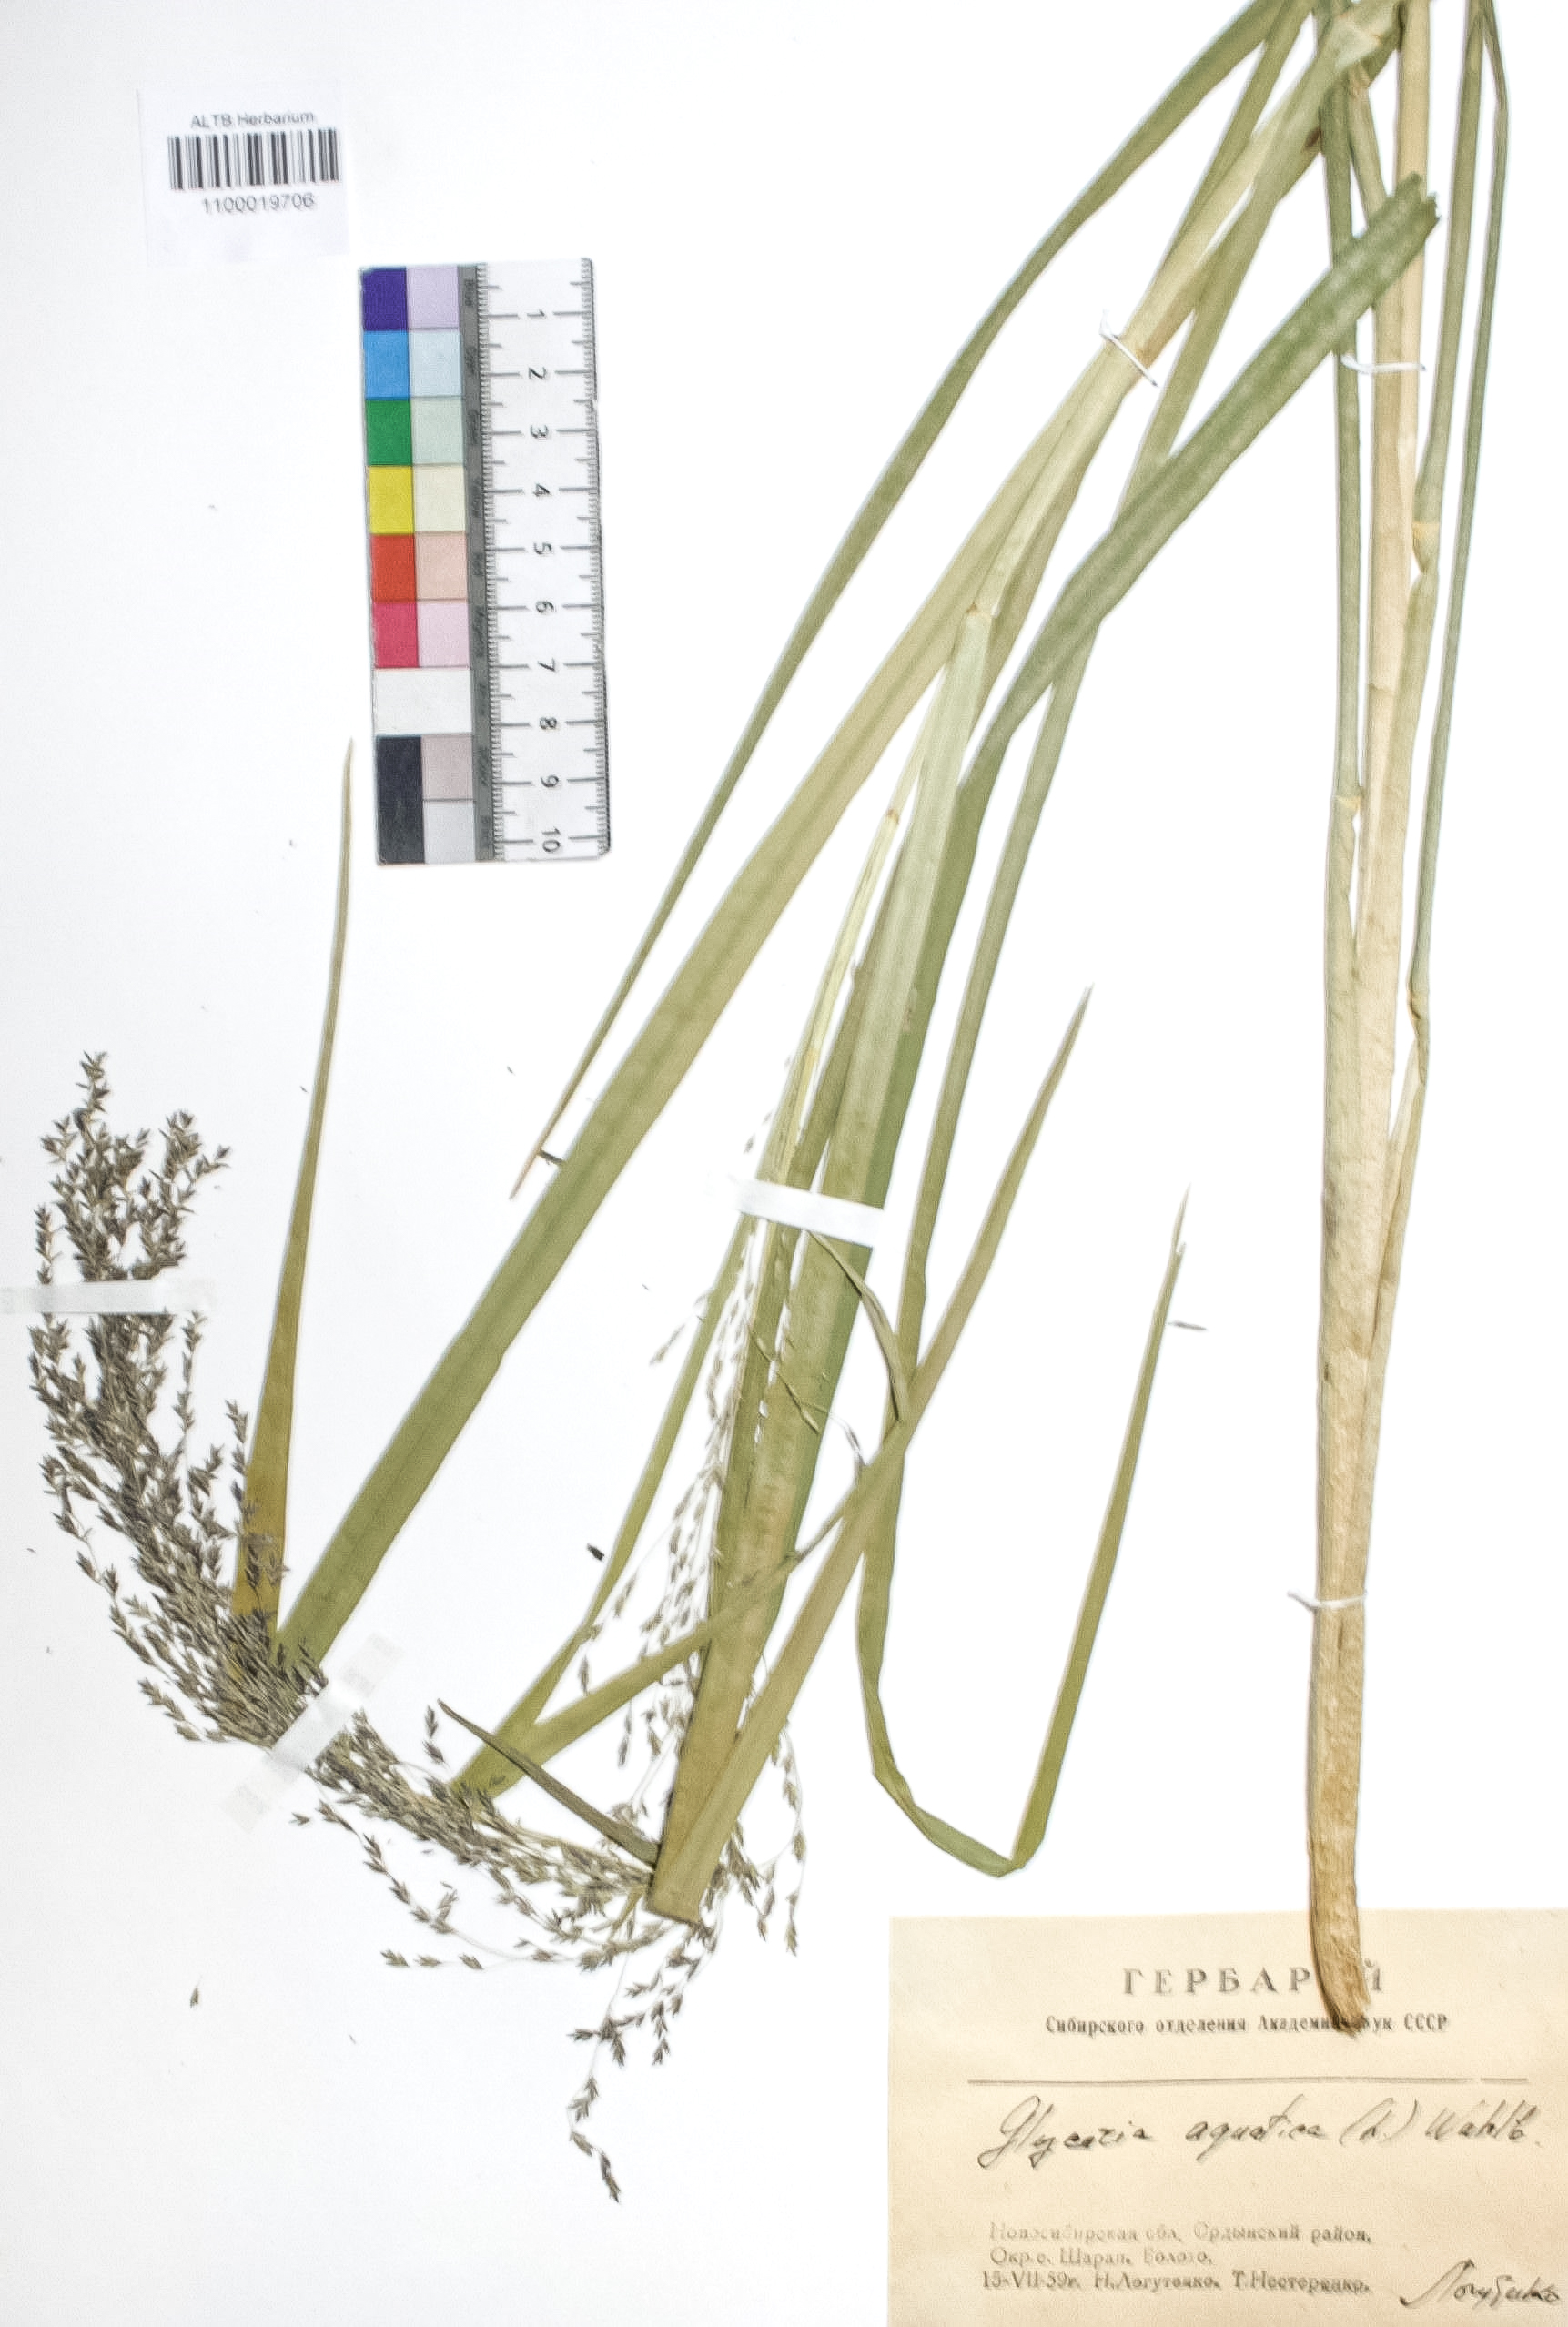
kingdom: Plantae
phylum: Tracheophyta
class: Liliopsida
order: Poales
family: Poaceae
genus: Glyceria
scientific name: Glyceria maxima
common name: Reed mannagrass
